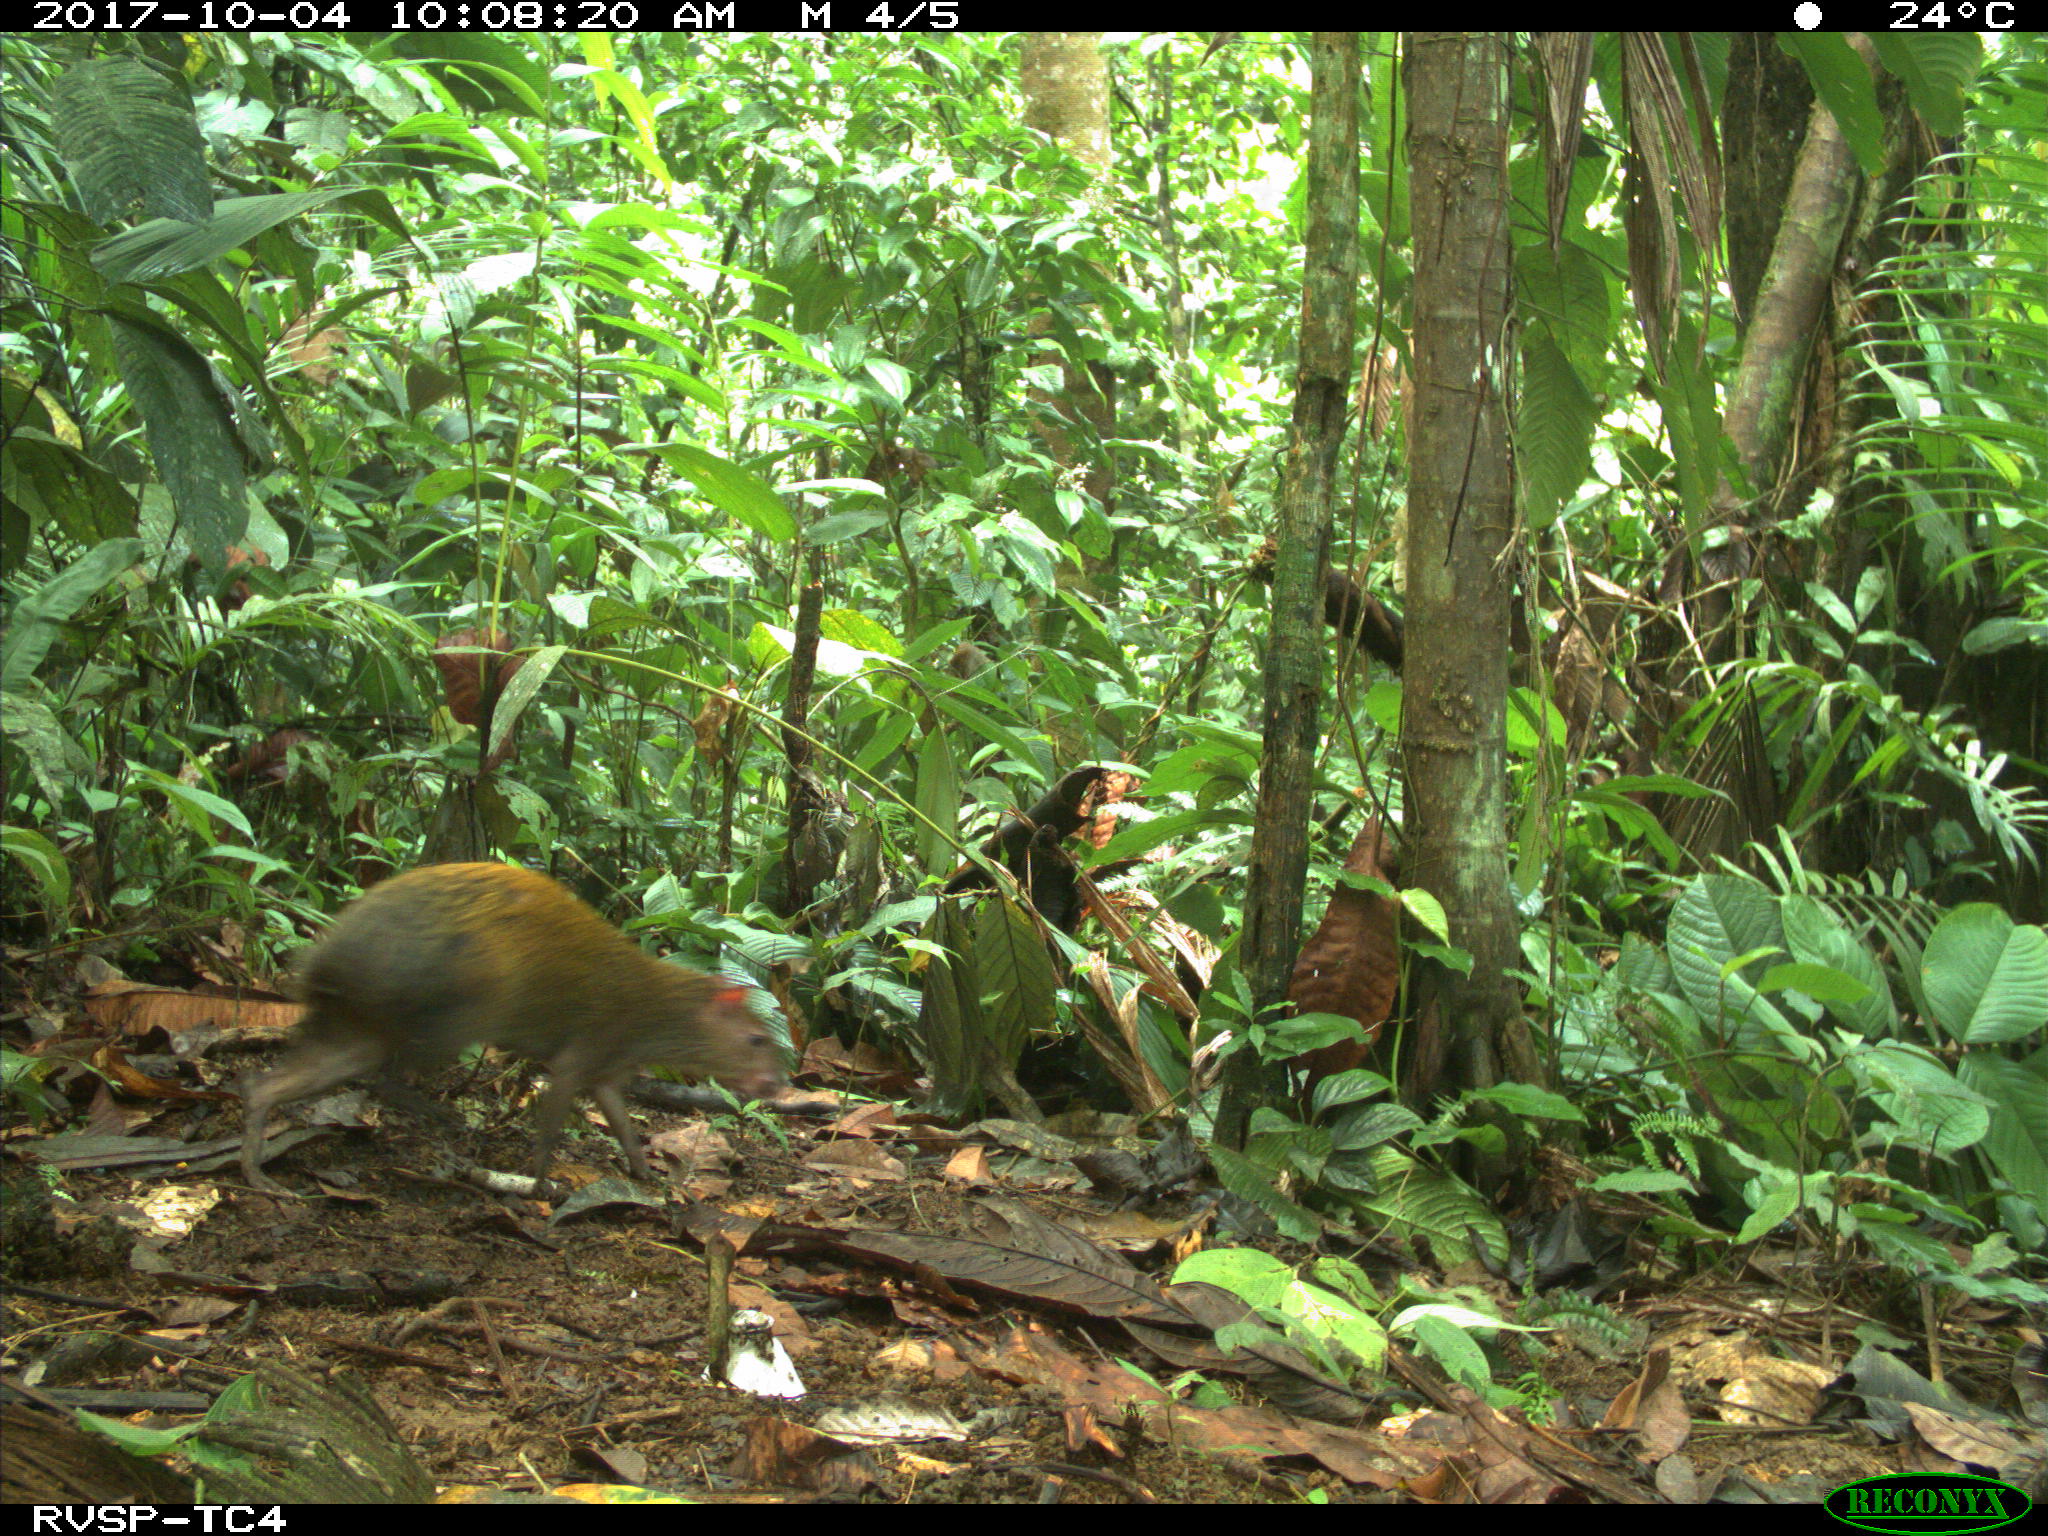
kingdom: Animalia
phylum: Chordata
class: Mammalia
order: Rodentia
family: Dasyproctidae
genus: Dasyprocta
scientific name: Dasyprocta punctata
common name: Central american agouti
